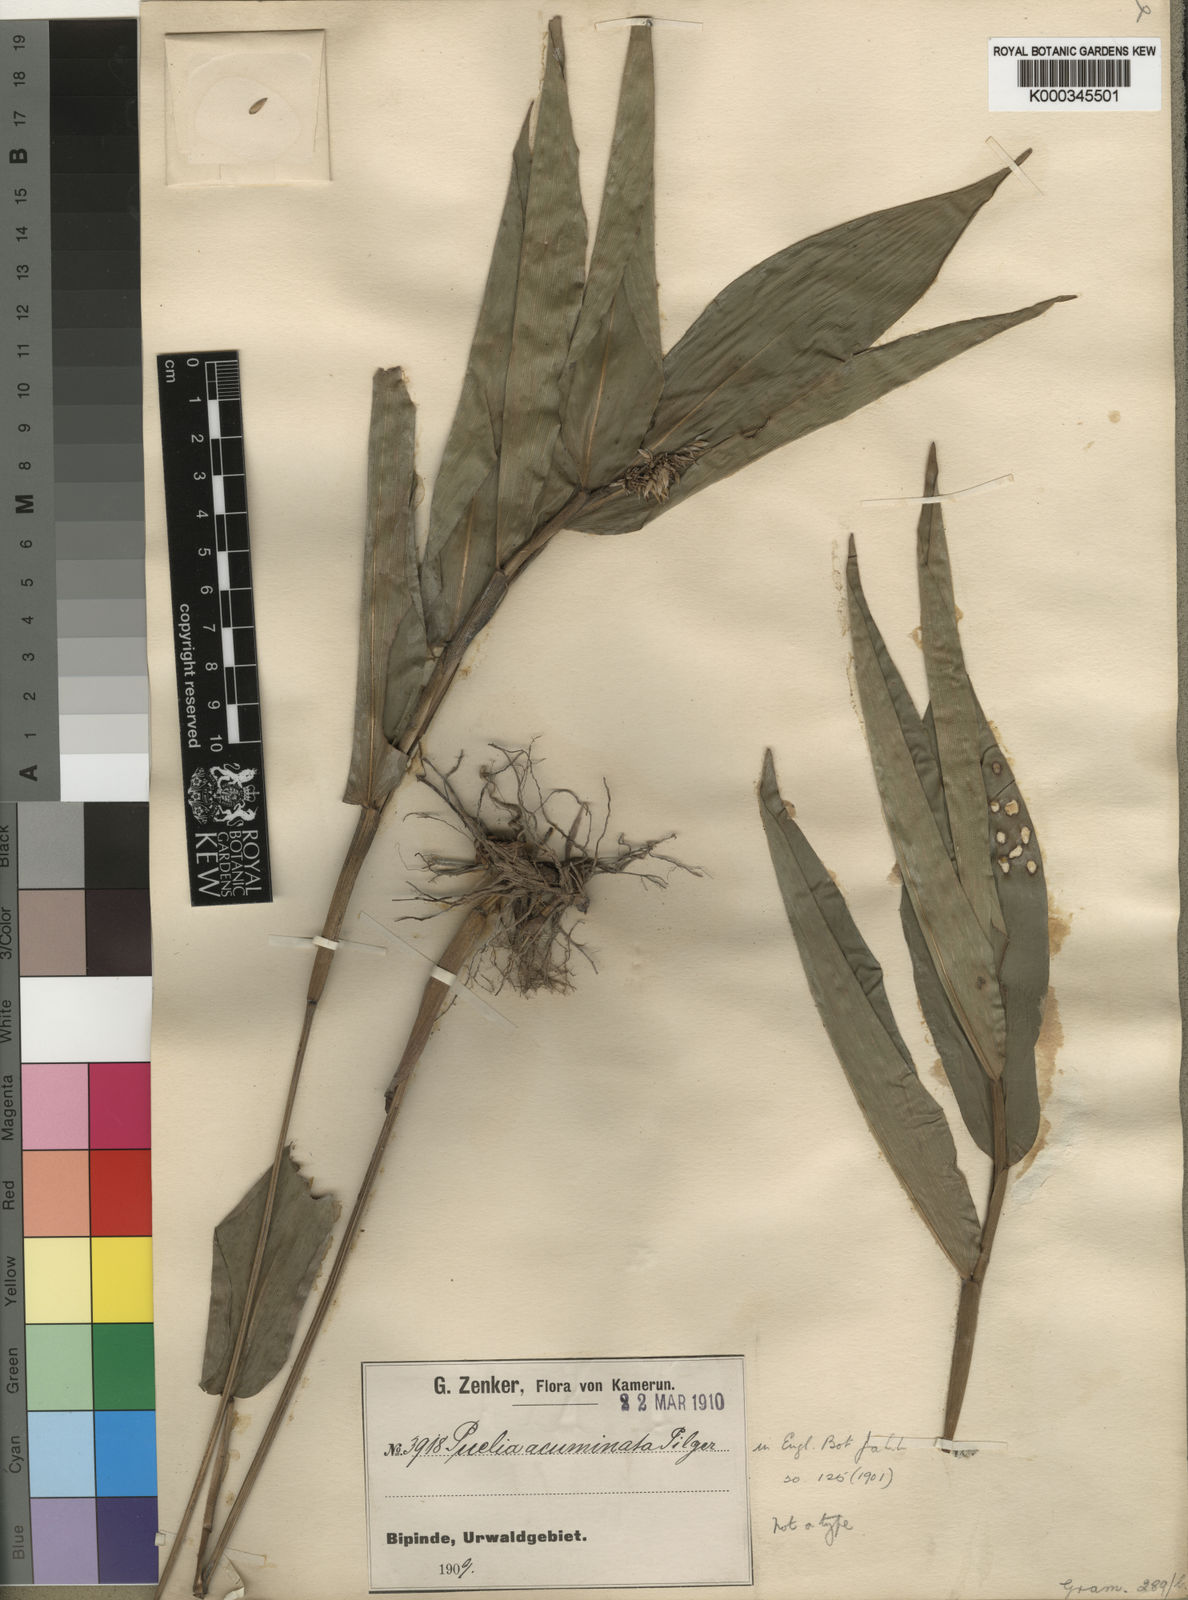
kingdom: Plantae
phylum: Tracheophyta
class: Liliopsida
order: Poales
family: Poaceae
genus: Puelia
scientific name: Puelia ciliata
